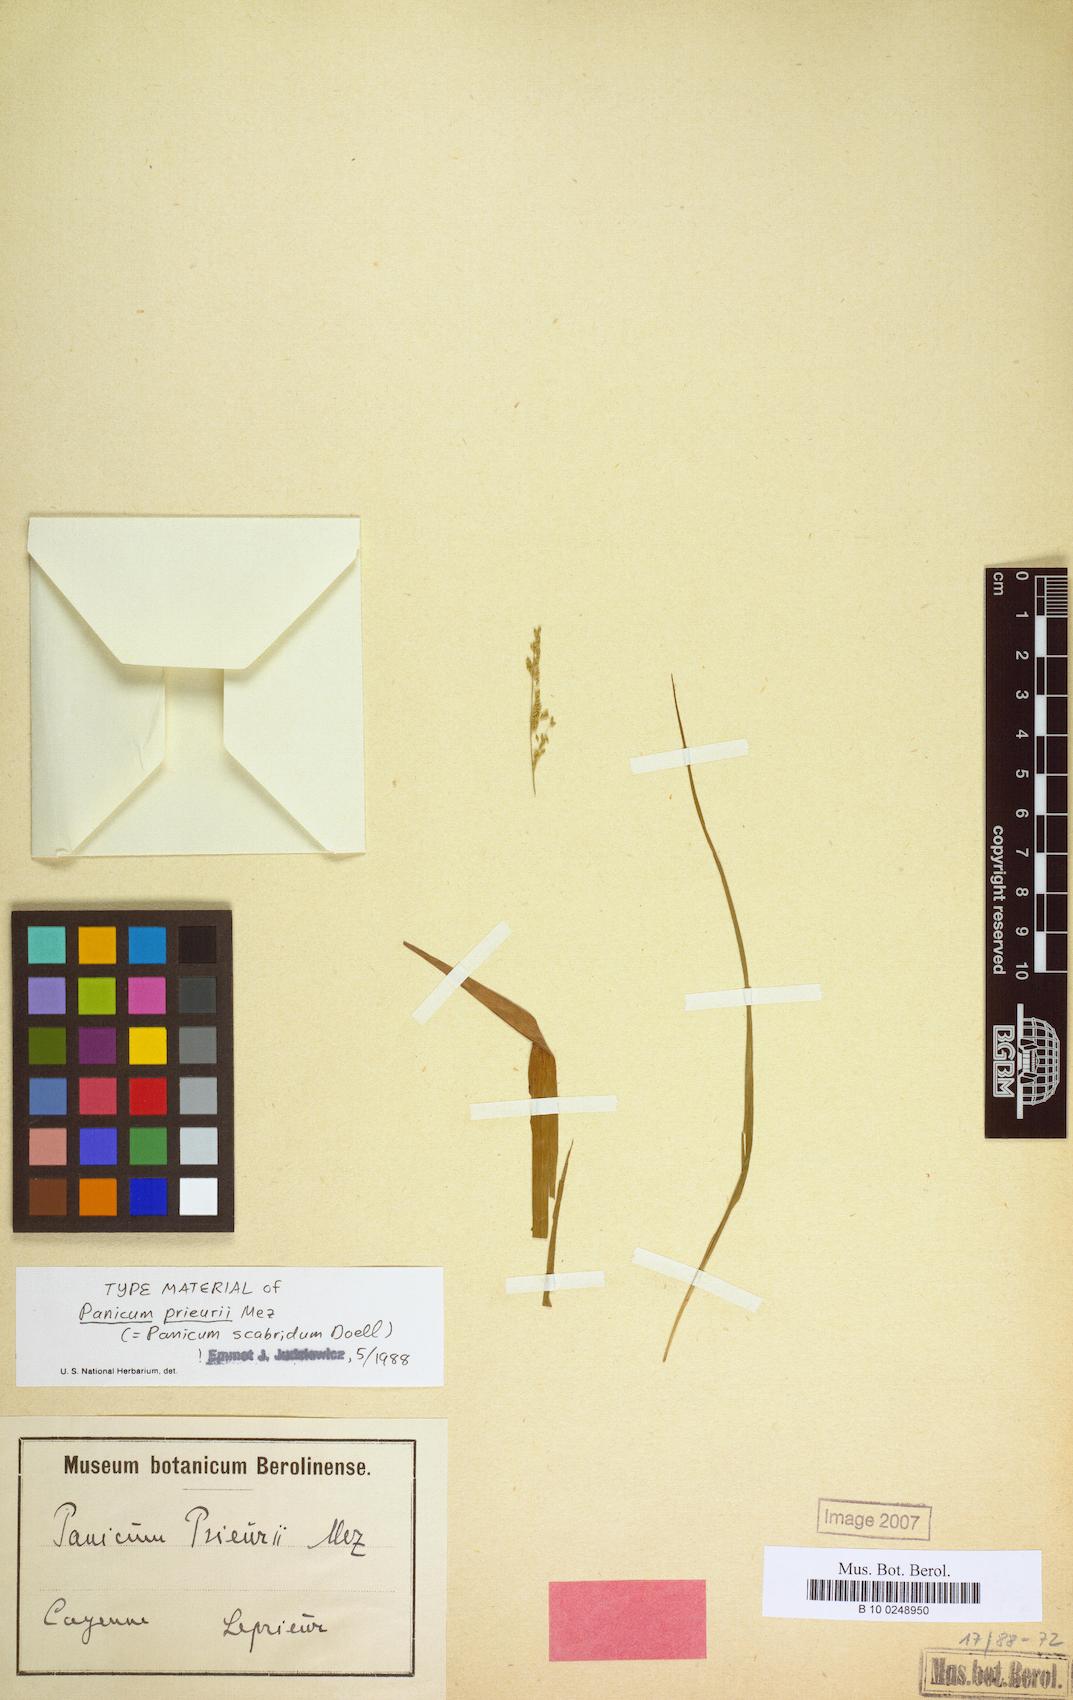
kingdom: Plantae
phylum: Tracheophyta
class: Liliopsida
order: Poales
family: Poaceae
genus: Coleataenia
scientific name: Coleataenia scabrida
